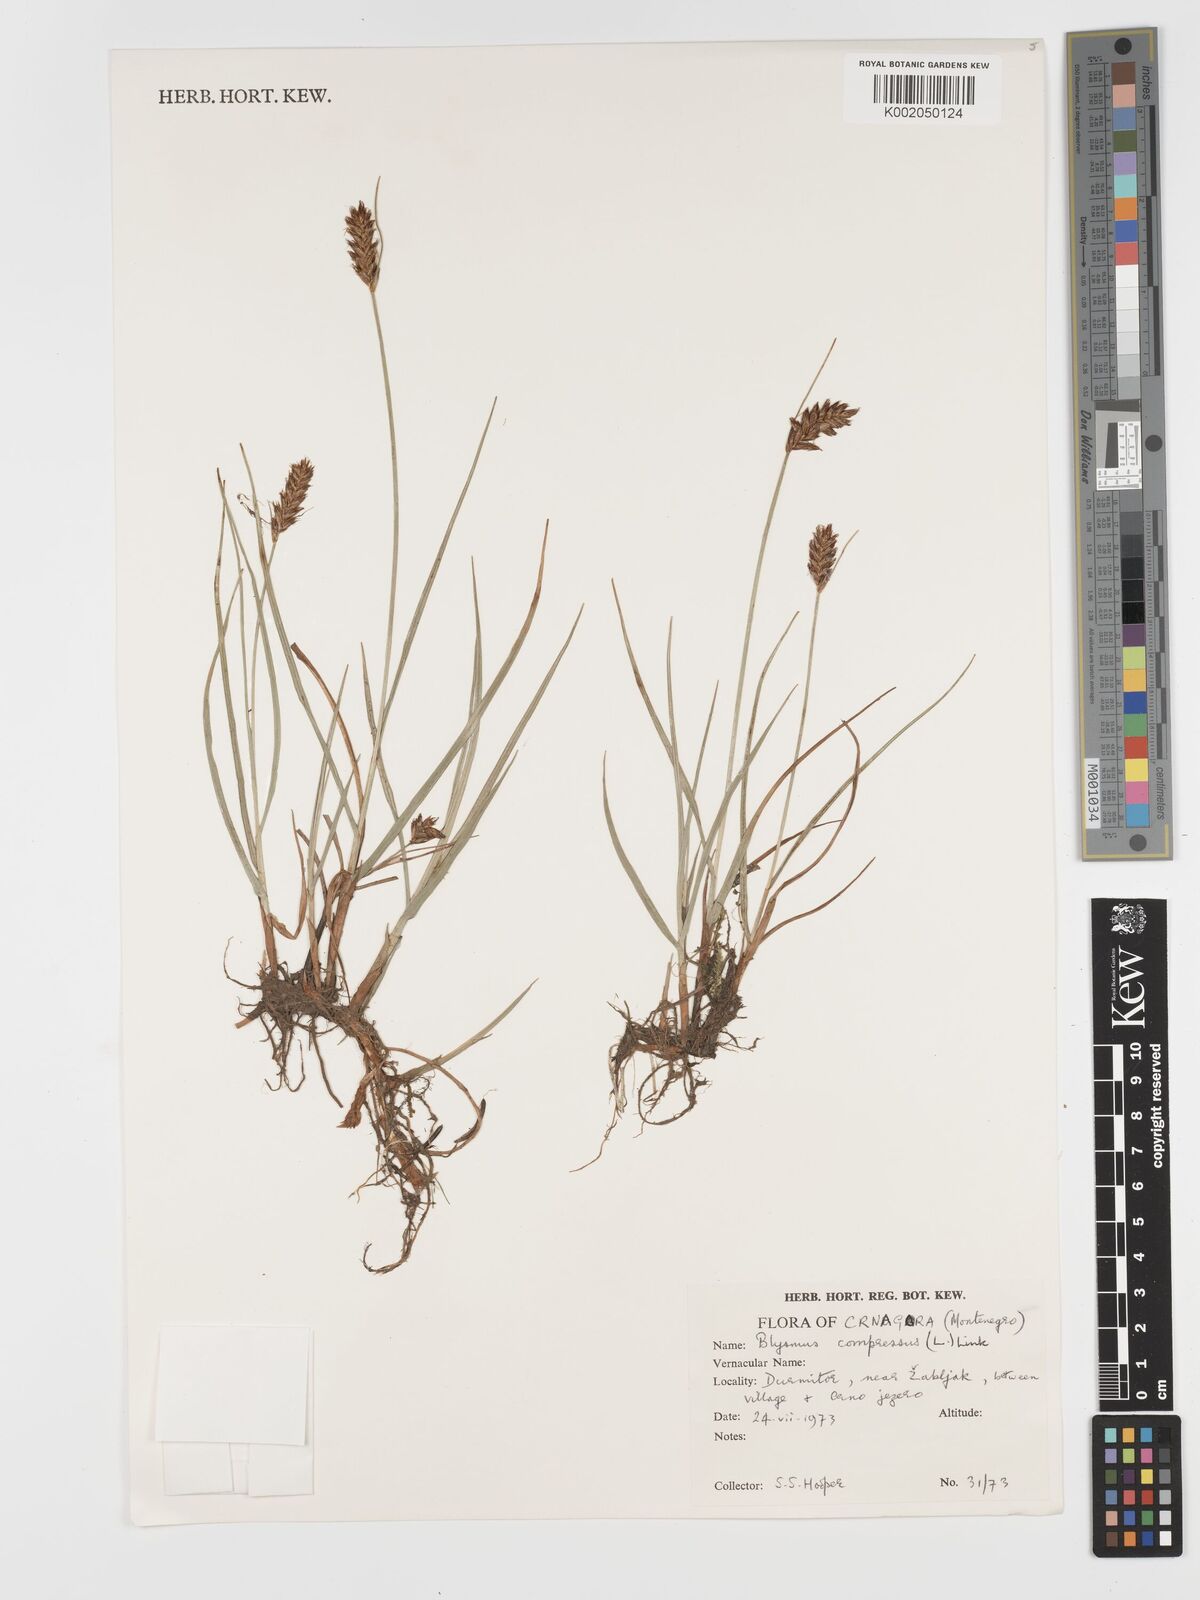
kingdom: Plantae
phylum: Tracheophyta
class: Liliopsida
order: Poales
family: Cyperaceae
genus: Blysmus
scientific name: Blysmus compressus
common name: Flat-sedge
